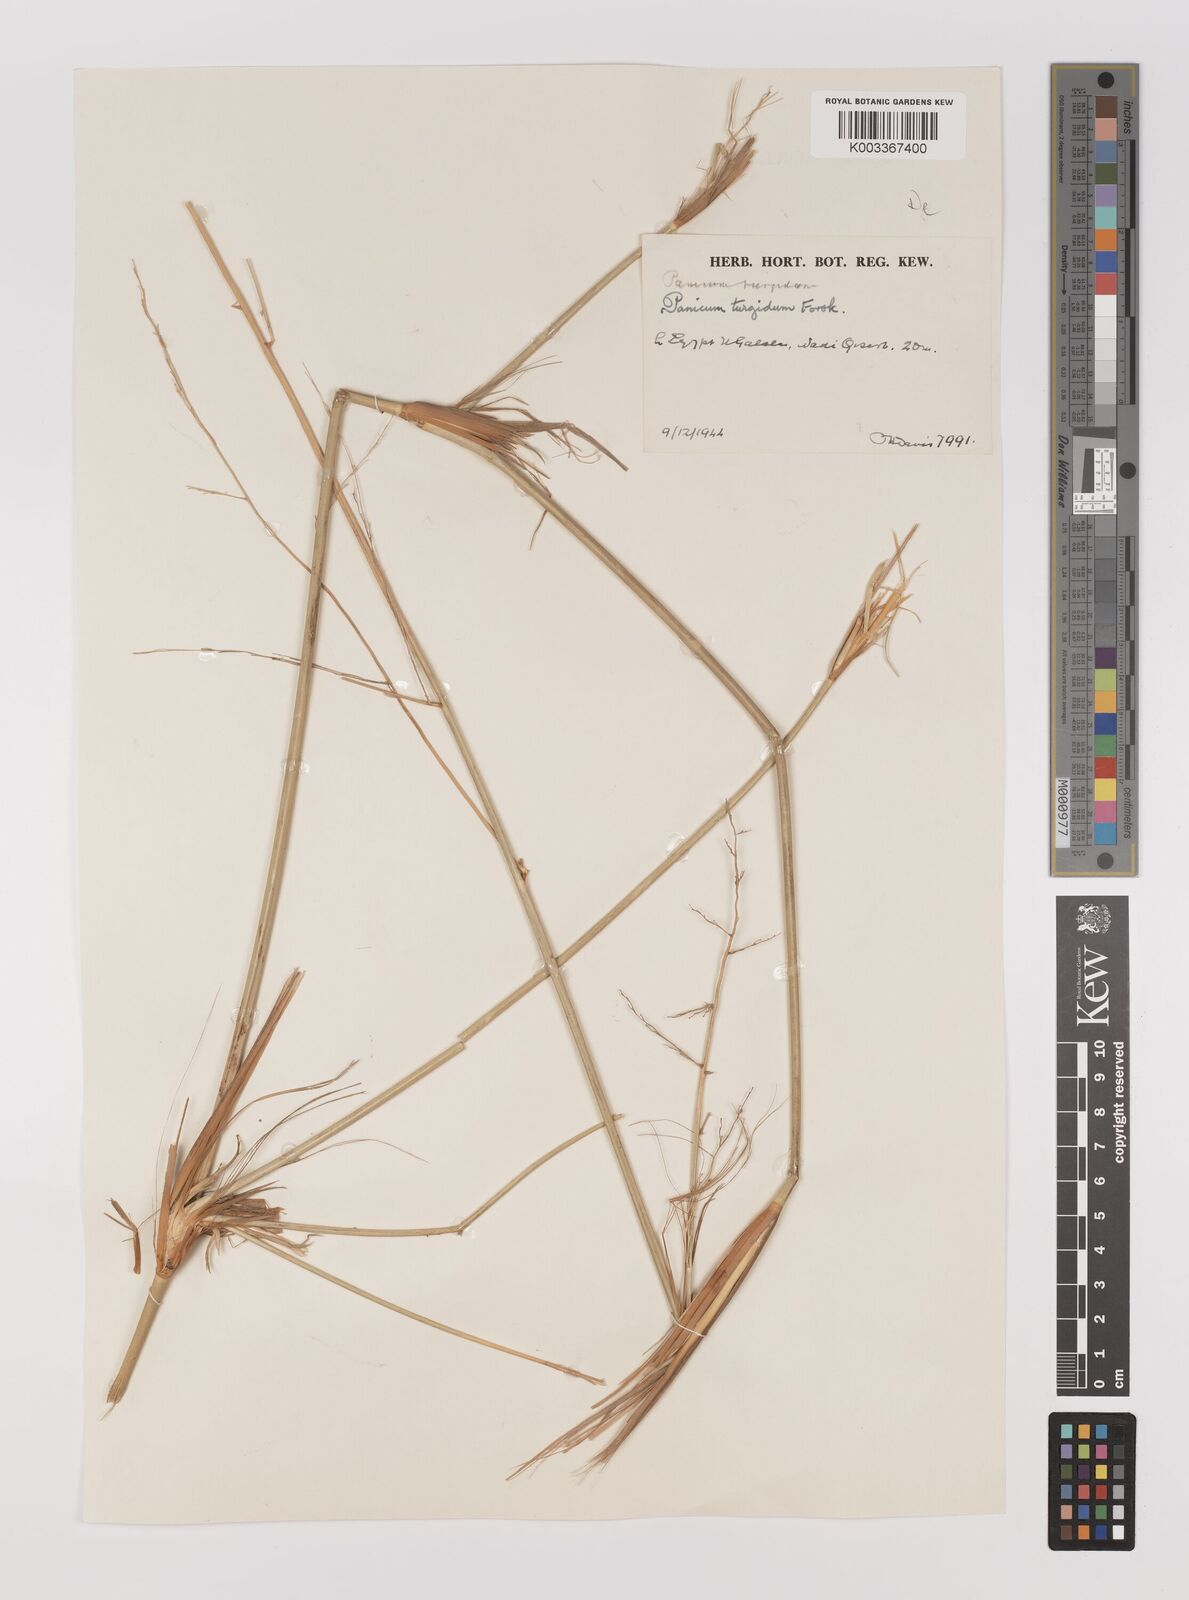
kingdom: Plantae
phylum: Tracheophyta
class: Liliopsida
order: Poales
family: Poaceae
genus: Panicum
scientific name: Panicum turgidum
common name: Desert grass
